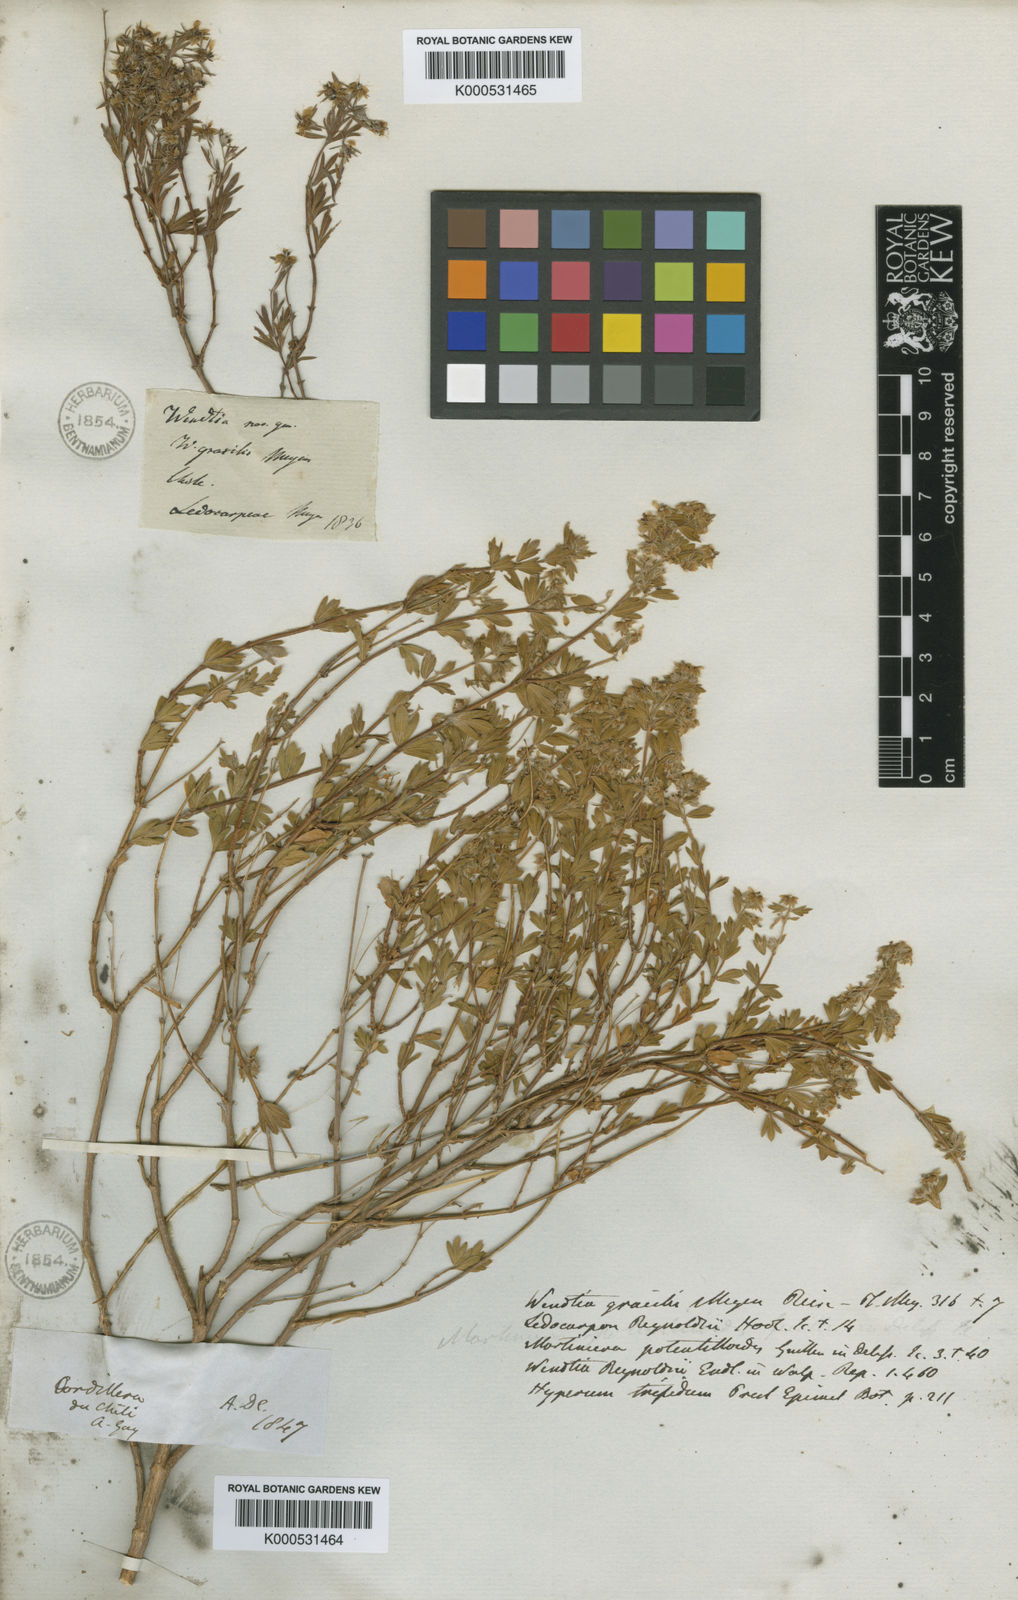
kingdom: Plantae
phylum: Tracheophyta
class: Magnoliopsida
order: Geraniales
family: Vivianiaceae
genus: Wendtia
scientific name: Wendtia gracilis
